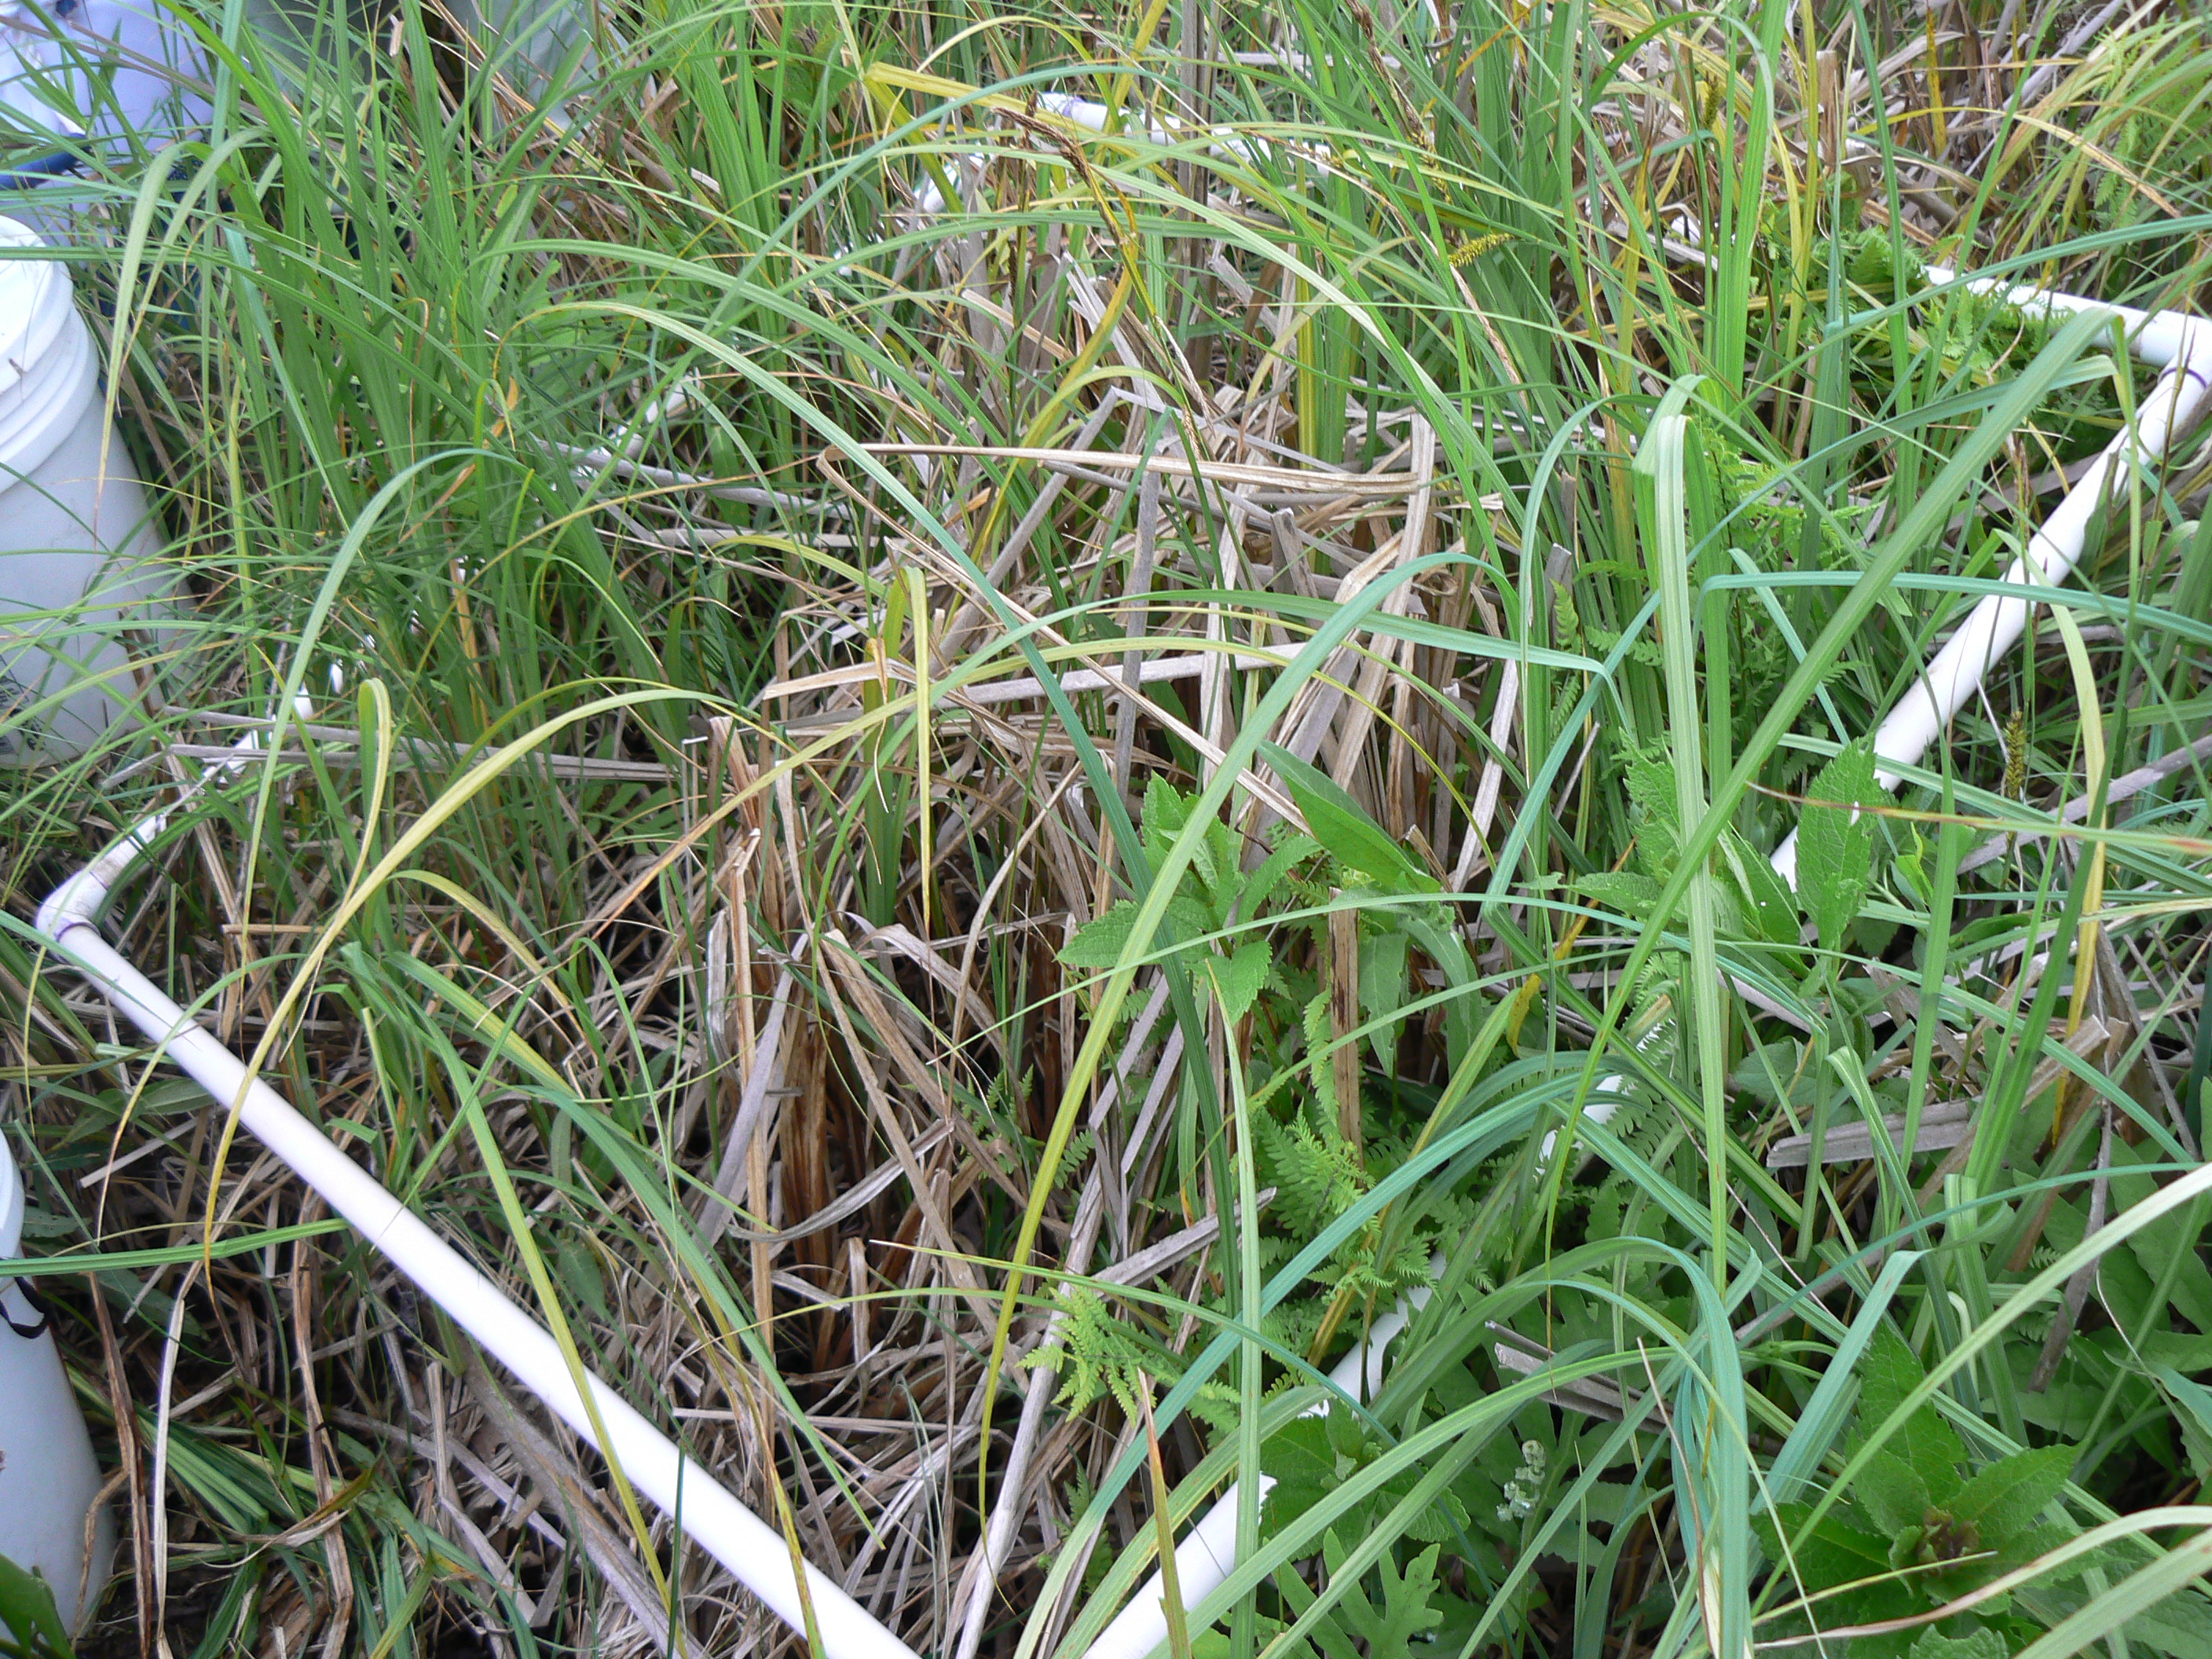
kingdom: Plantae
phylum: Tracheophyta
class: Polypodiopsida
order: Polypodiales
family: Thelypteridaceae
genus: Thelypteris
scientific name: Thelypteris palustris
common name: Marsh fern
